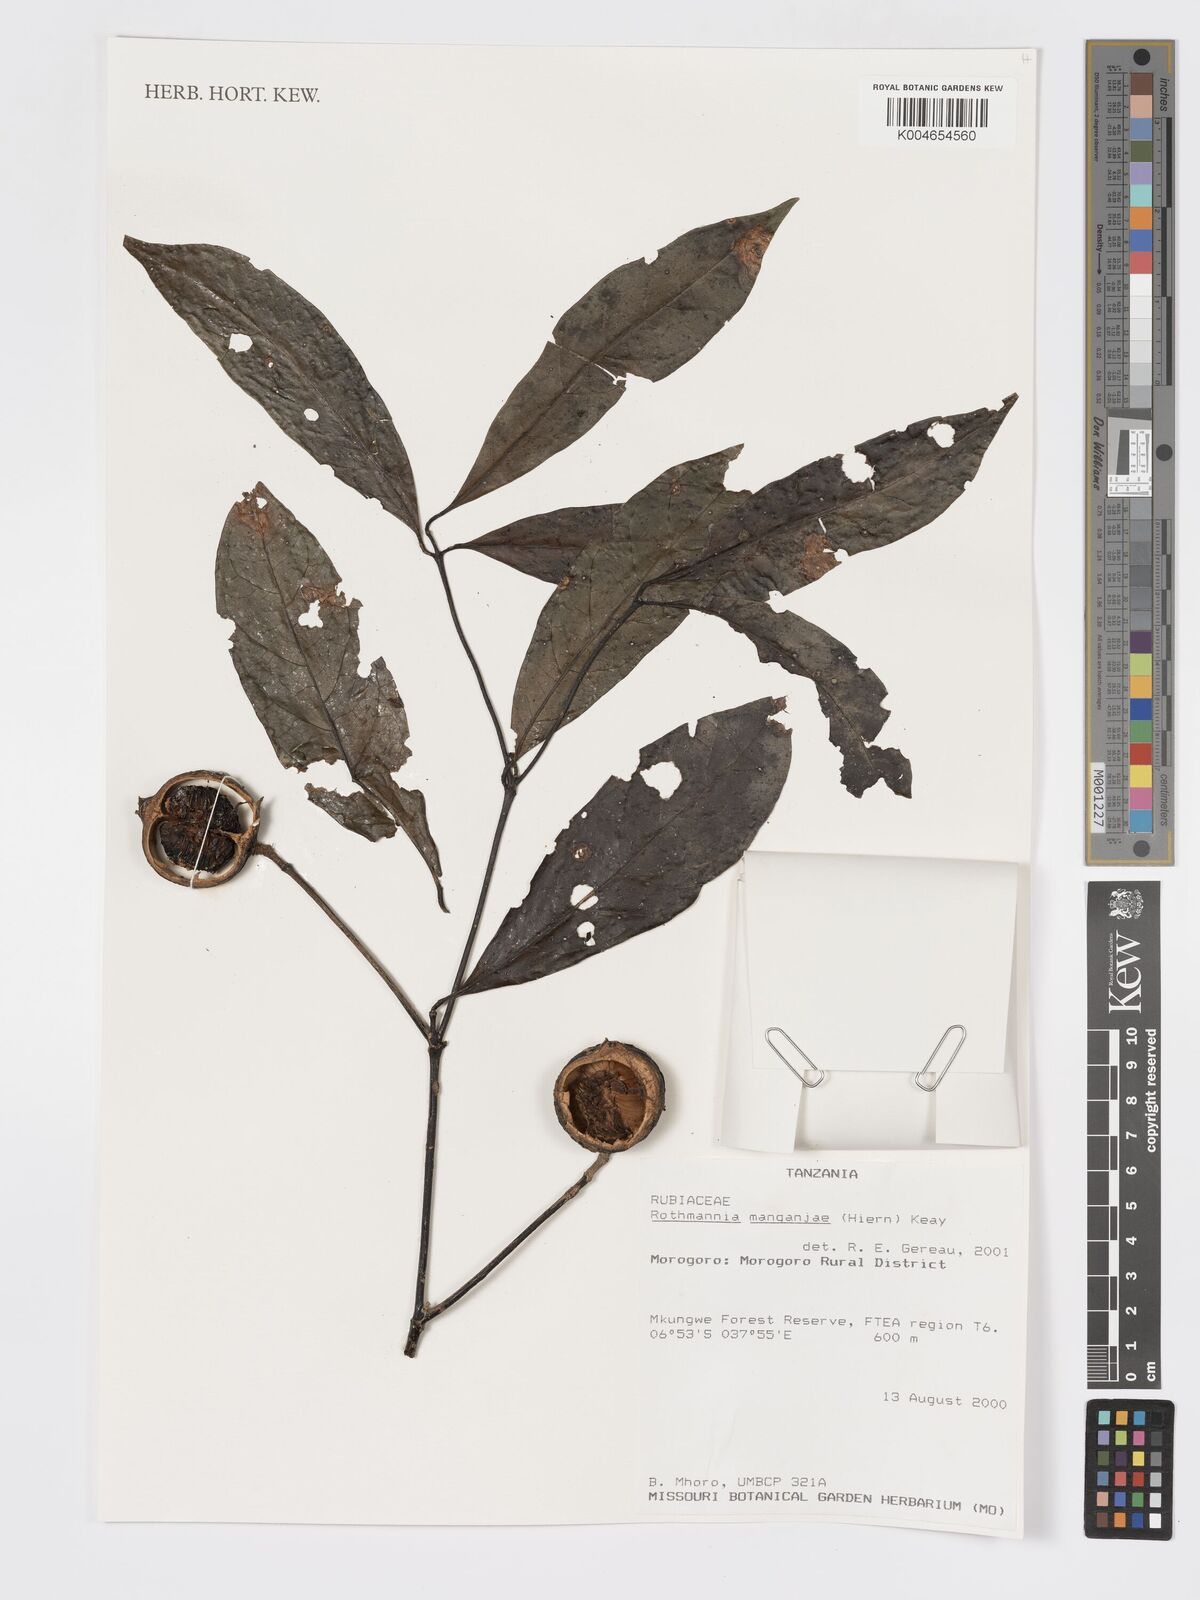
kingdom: Plantae
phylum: Tracheophyta
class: Magnoliopsida
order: Gentianales
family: Rubiaceae
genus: Rothmannia
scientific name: Rothmannia manganjae
